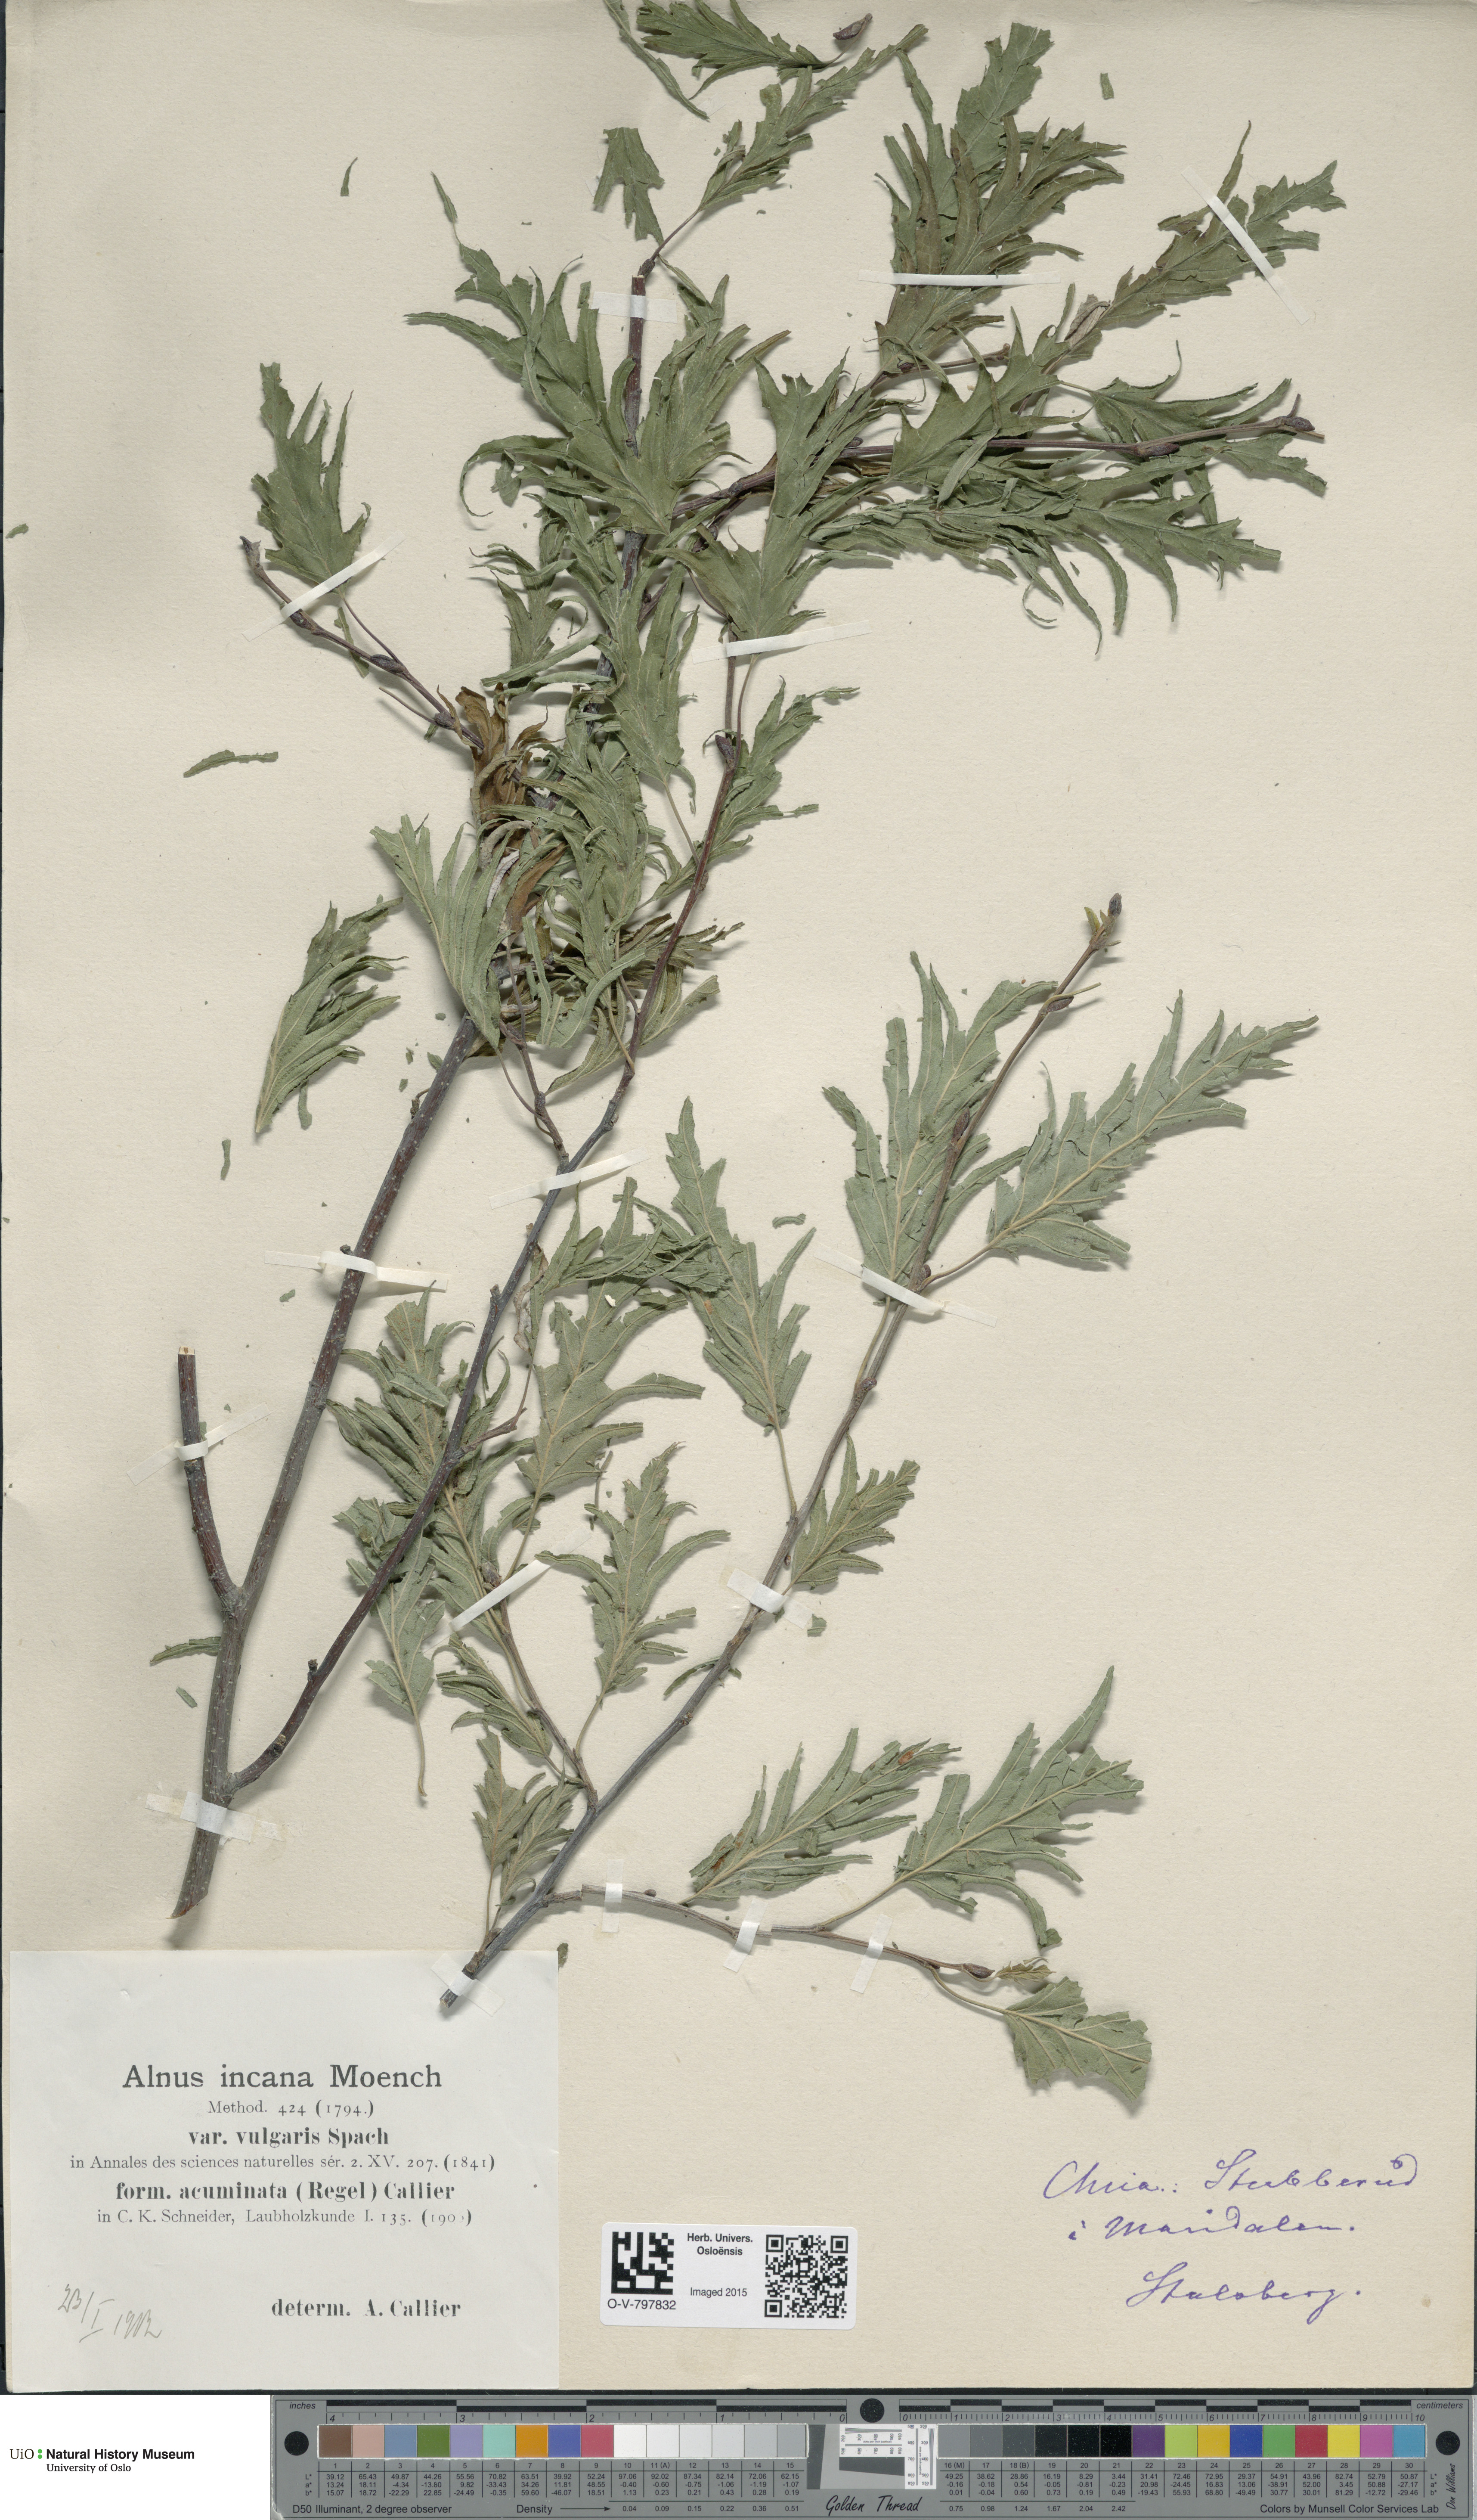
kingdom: Plantae
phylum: Tracheophyta
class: Magnoliopsida
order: Fagales
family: Betulaceae
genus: Alnus
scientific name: Alnus incana
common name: Grey alder
